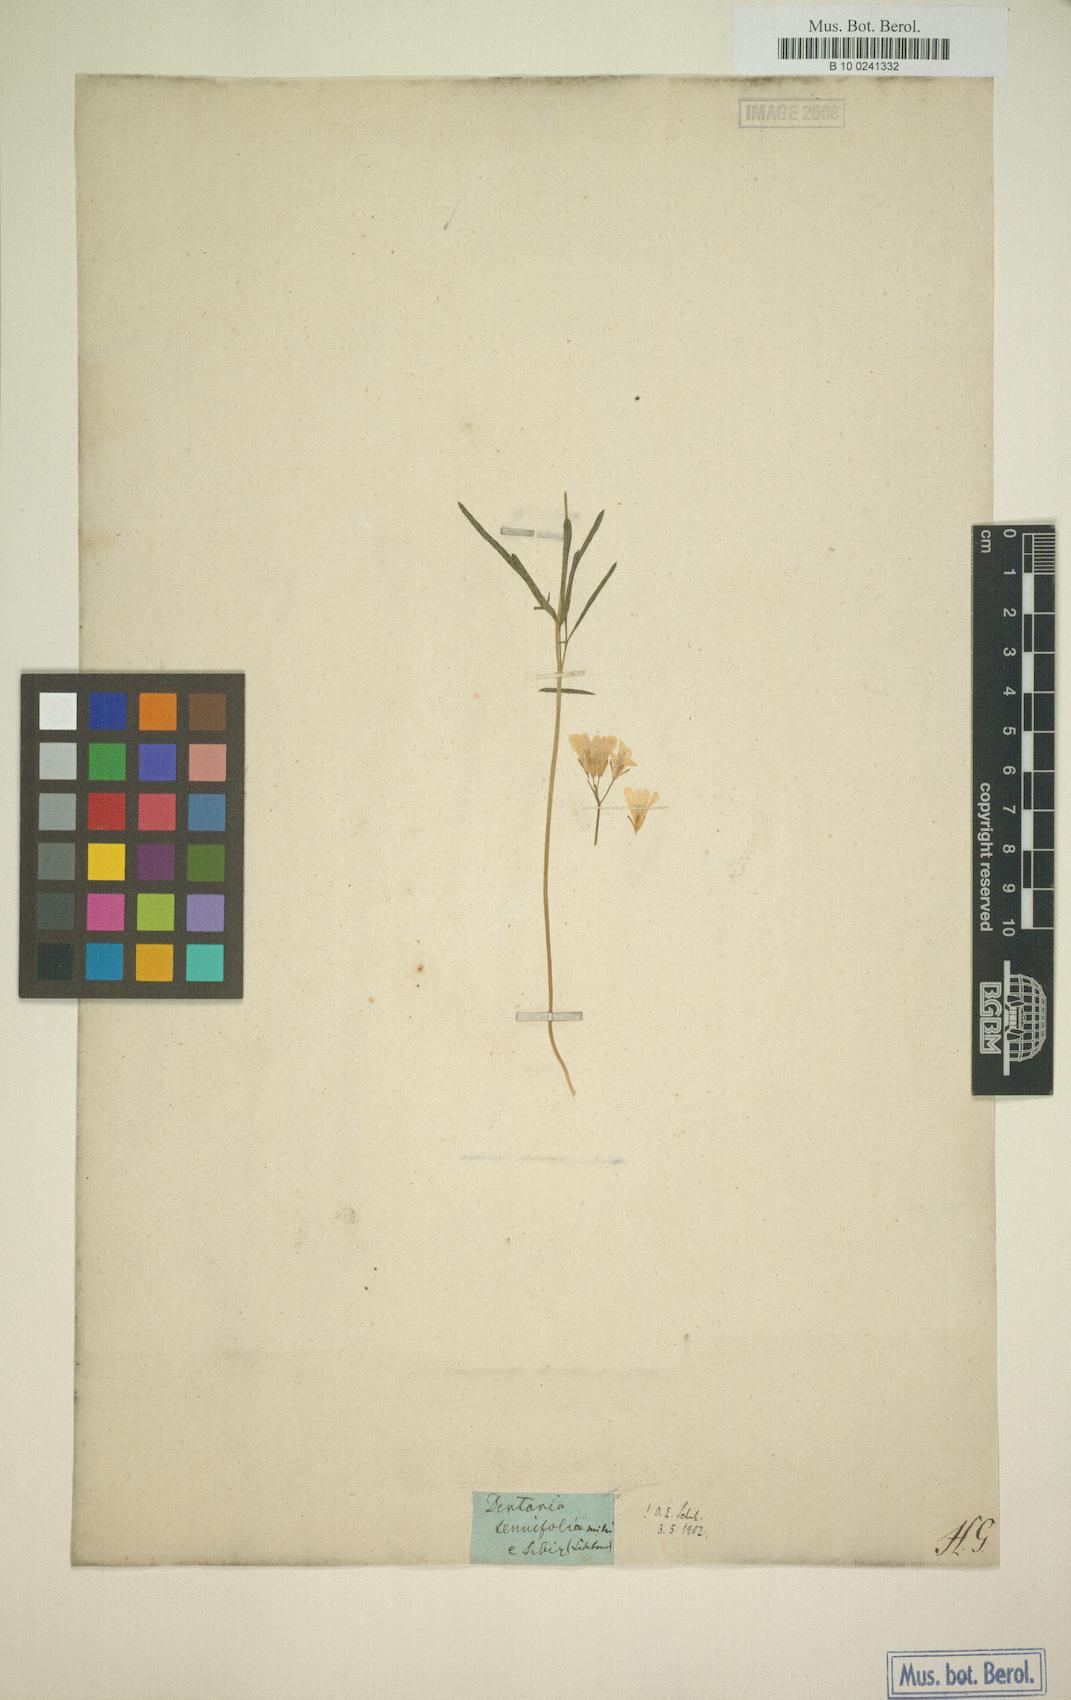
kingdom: Plantae
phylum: Tracheophyta
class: Magnoliopsida
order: Brassicales
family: Brassicaceae
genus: Cardamine
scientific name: Cardamine trifida
